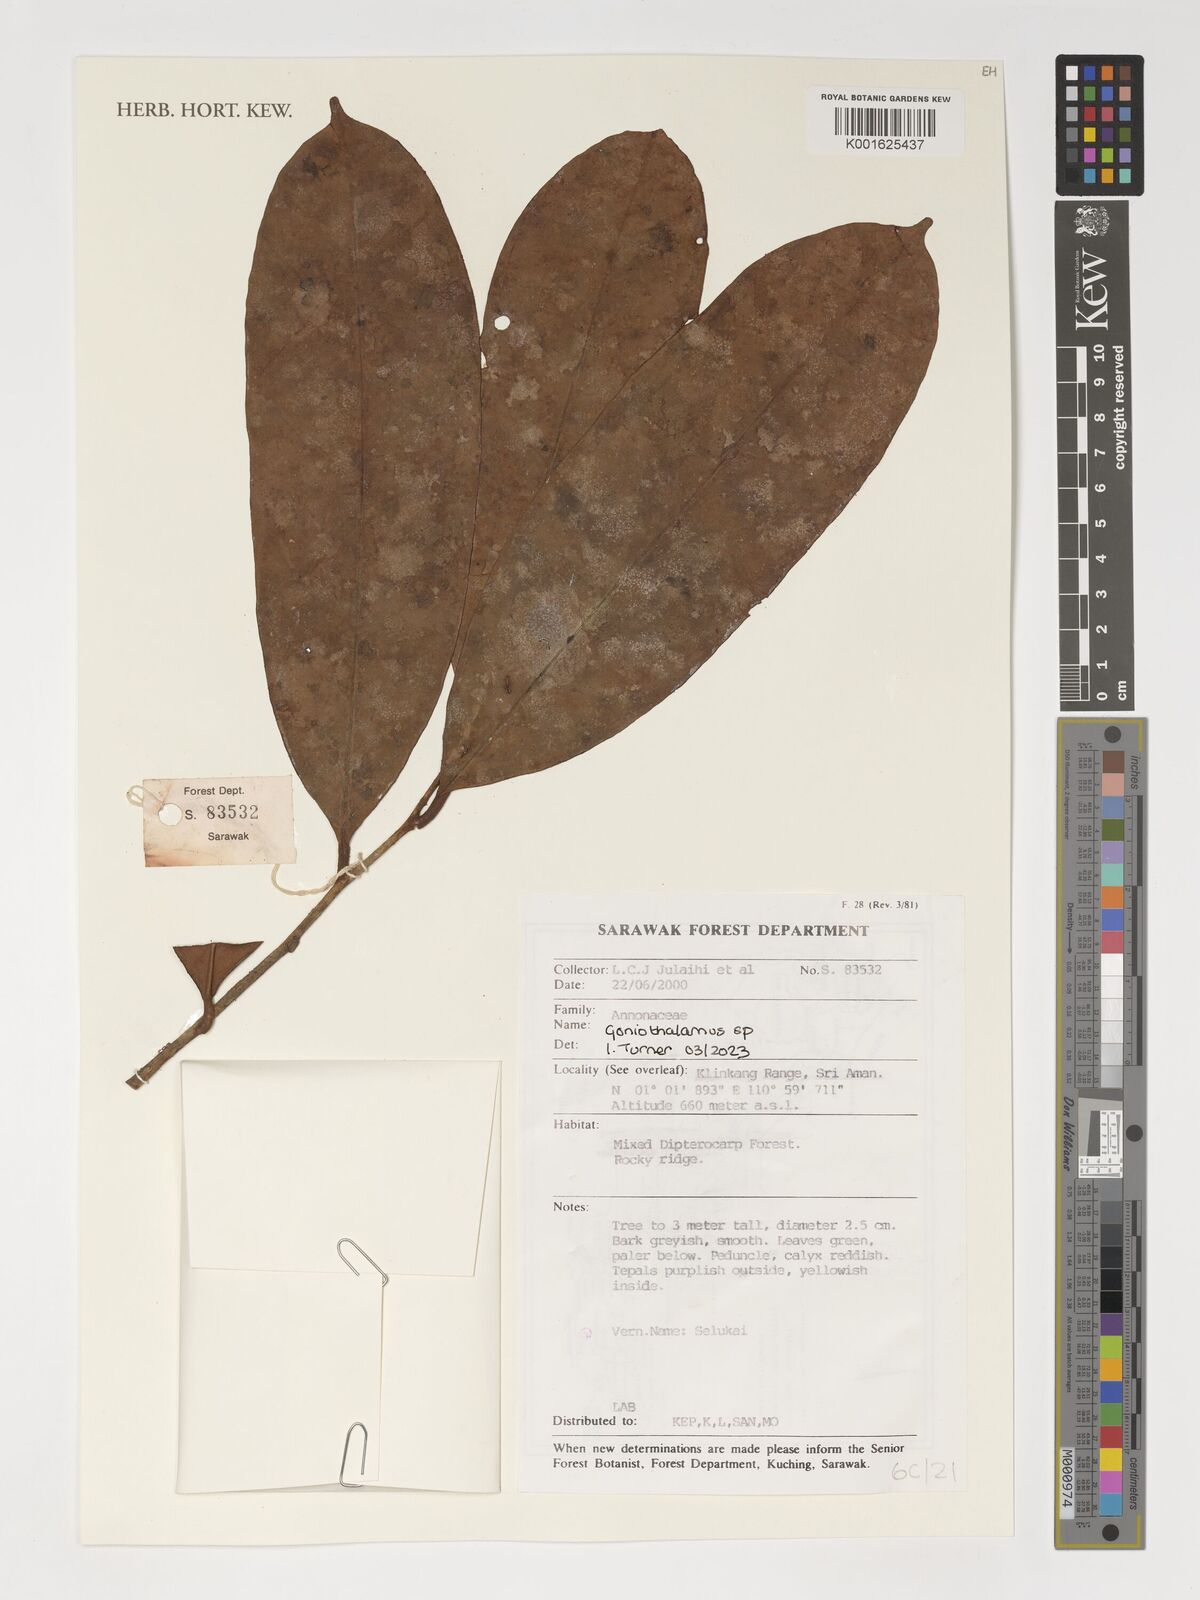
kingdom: Plantae
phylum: Tracheophyta
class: Magnoliopsida
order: Magnoliales
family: Annonaceae
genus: Goniothalamus
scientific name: Goniothalamus
